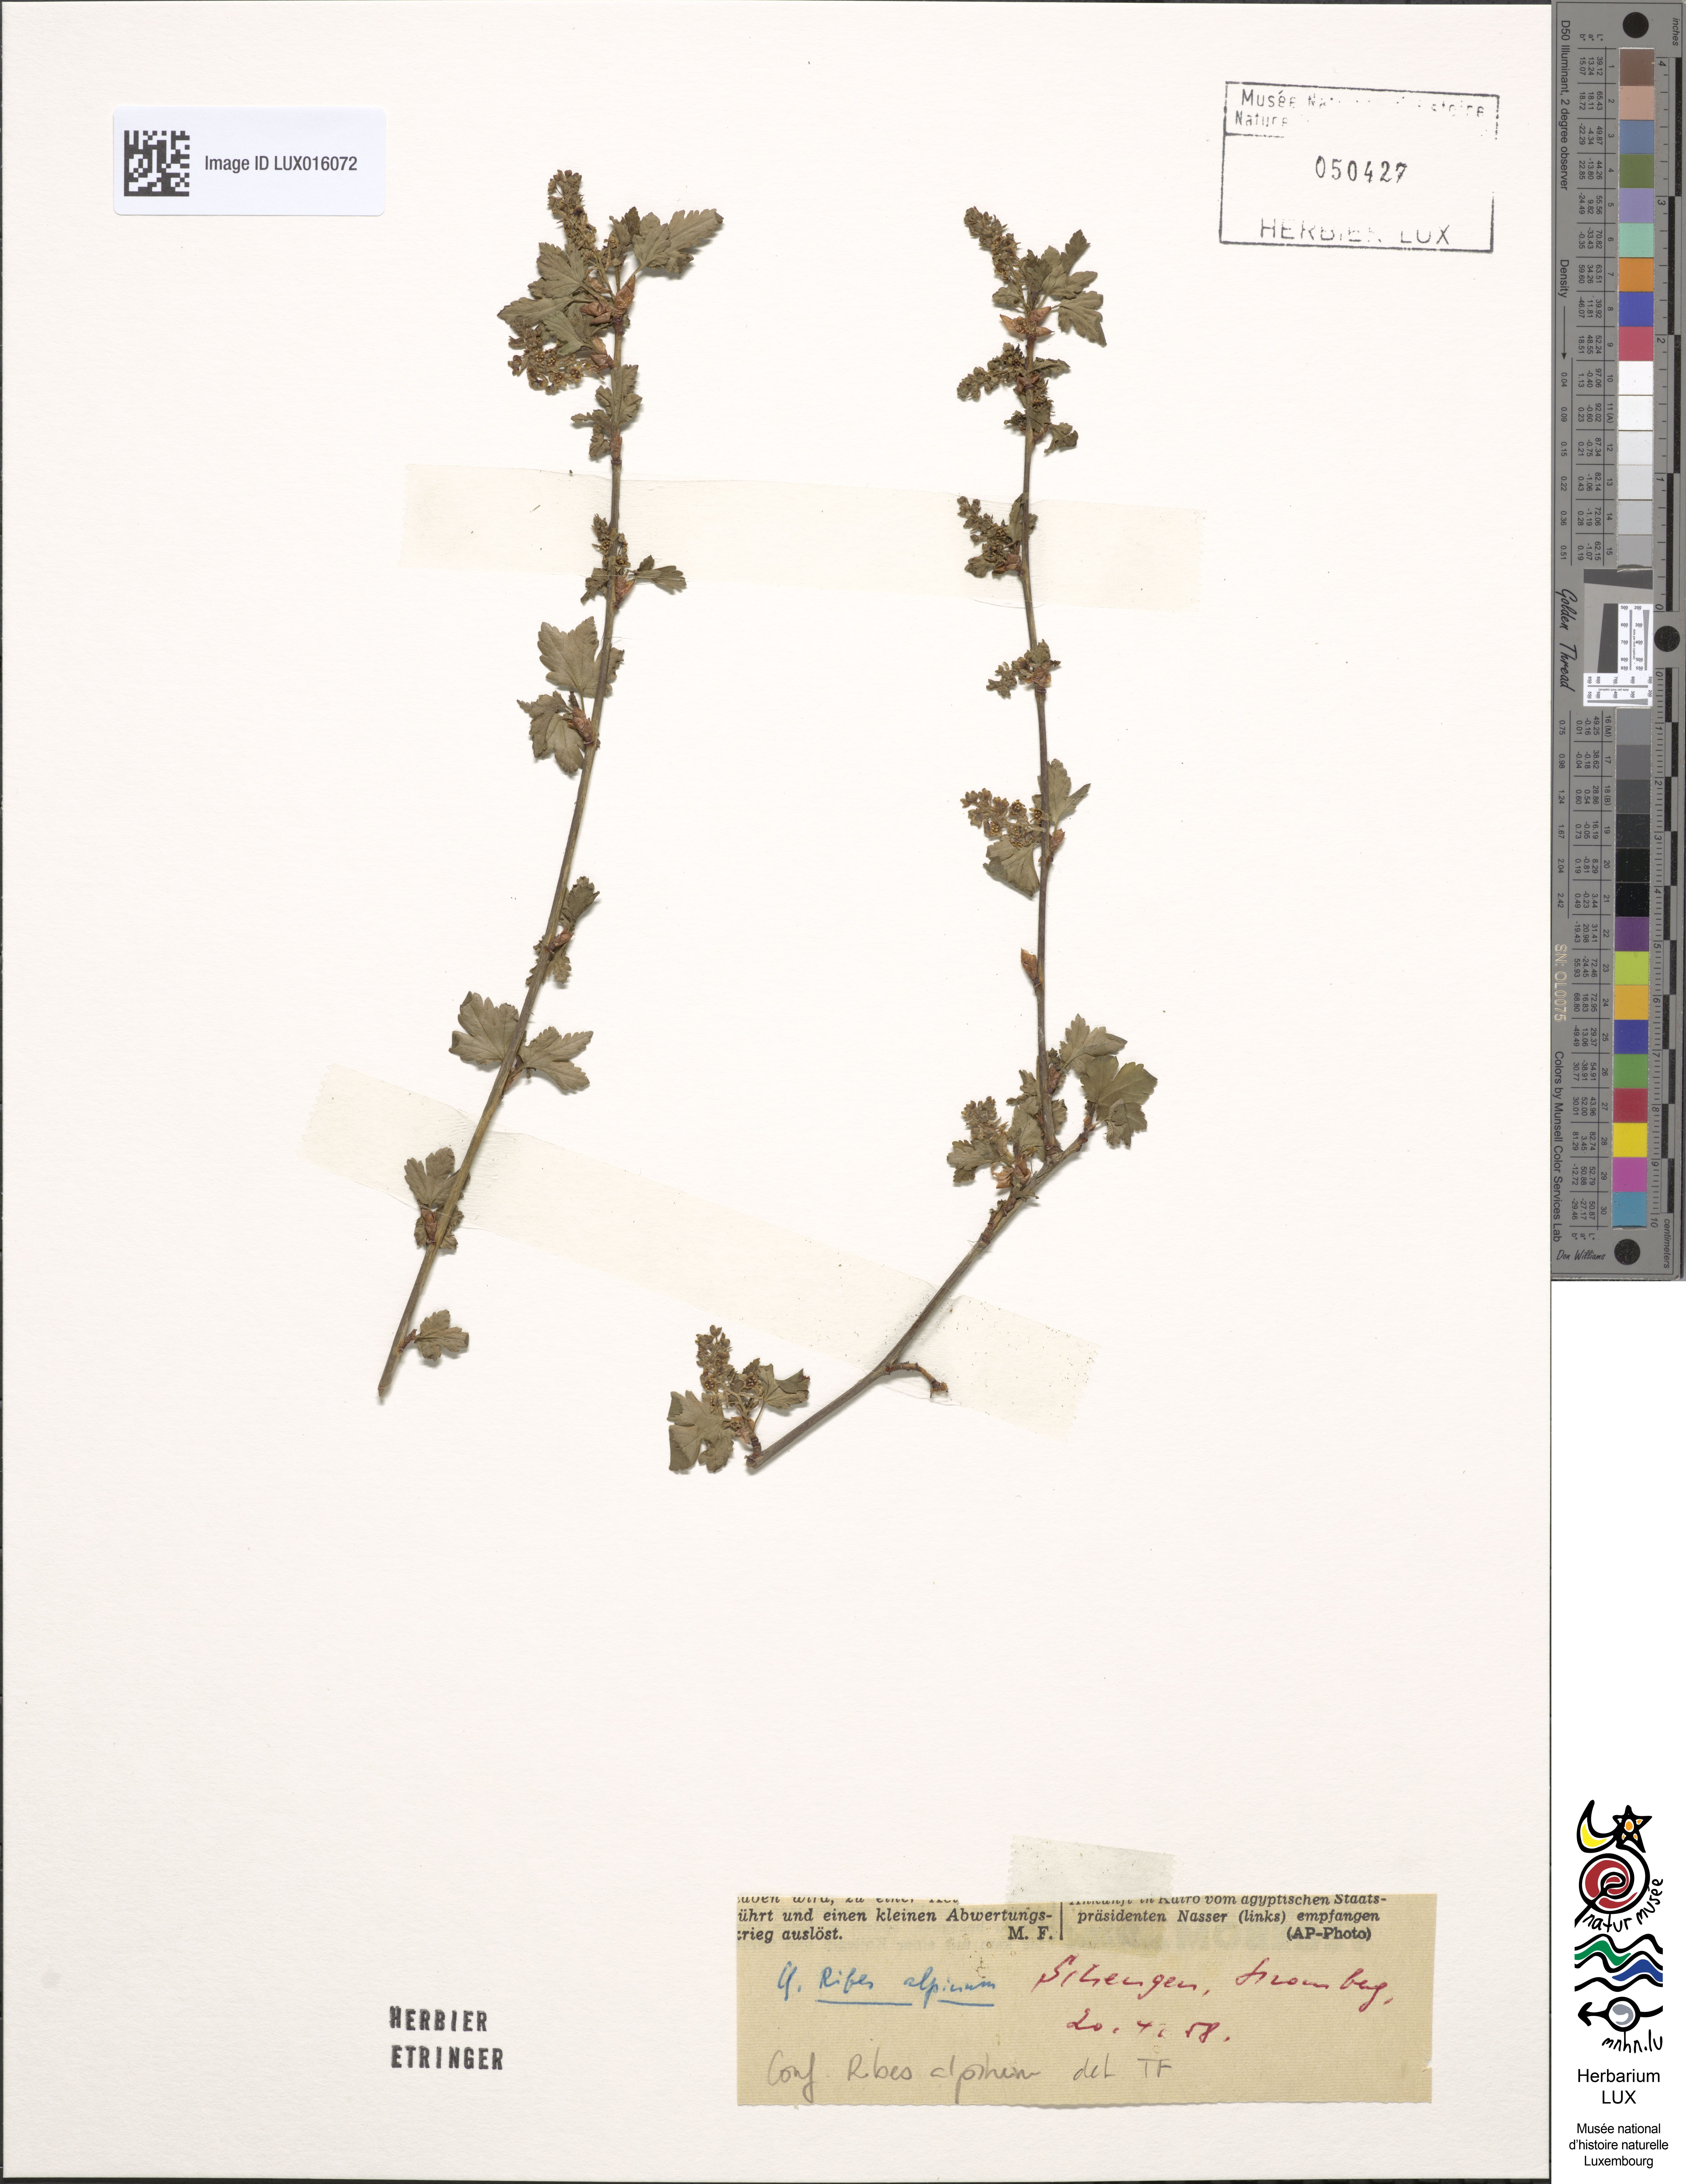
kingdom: Plantae
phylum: Tracheophyta
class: Magnoliopsida
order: Saxifragales
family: Grossulariaceae
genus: Ribes
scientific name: Ribes alpinum
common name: Alpine currant
